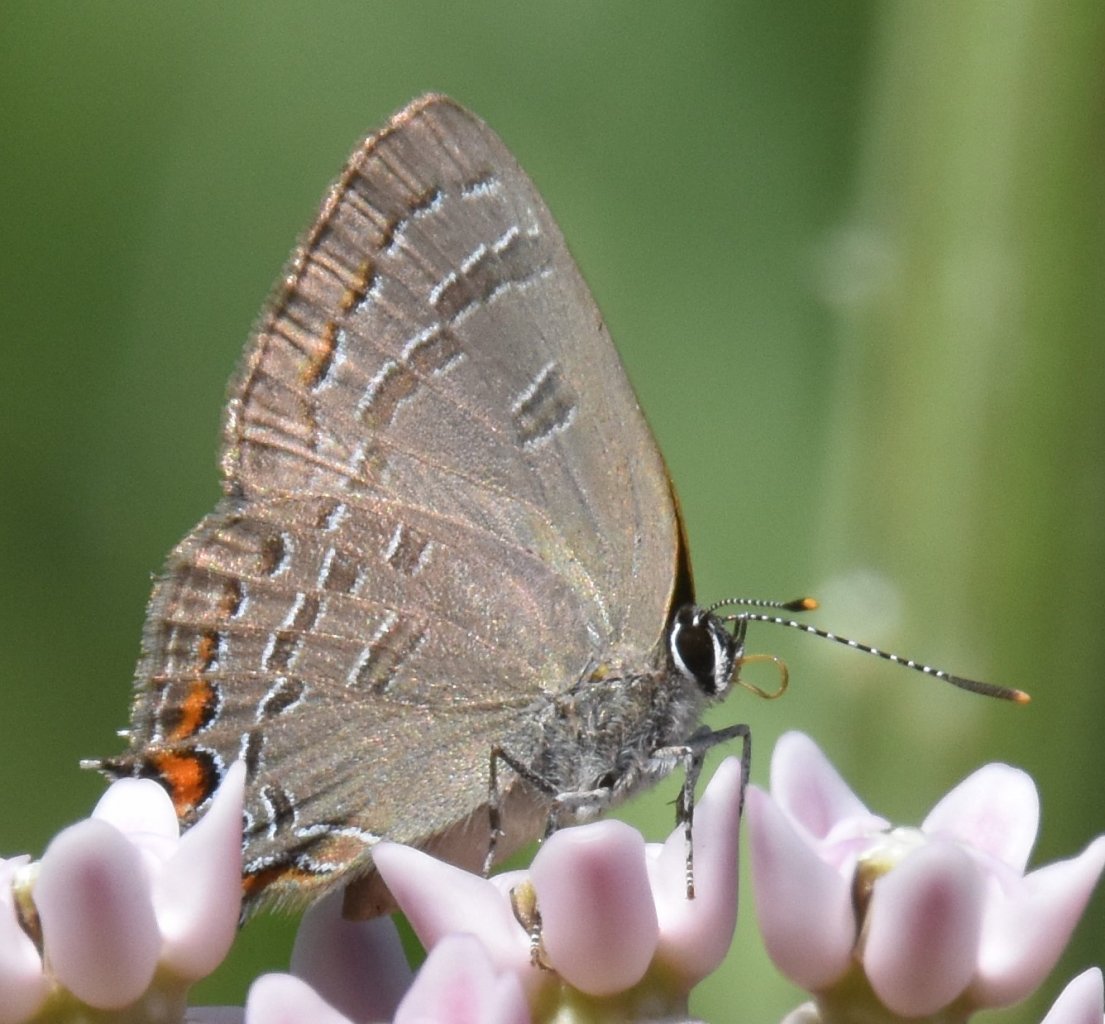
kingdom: Animalia
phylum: Arthropoda
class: Insecta
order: Lepidoptera
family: Lycaenidae
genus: Satyrium
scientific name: Satyrium calanus
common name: Banded Hairstreak
